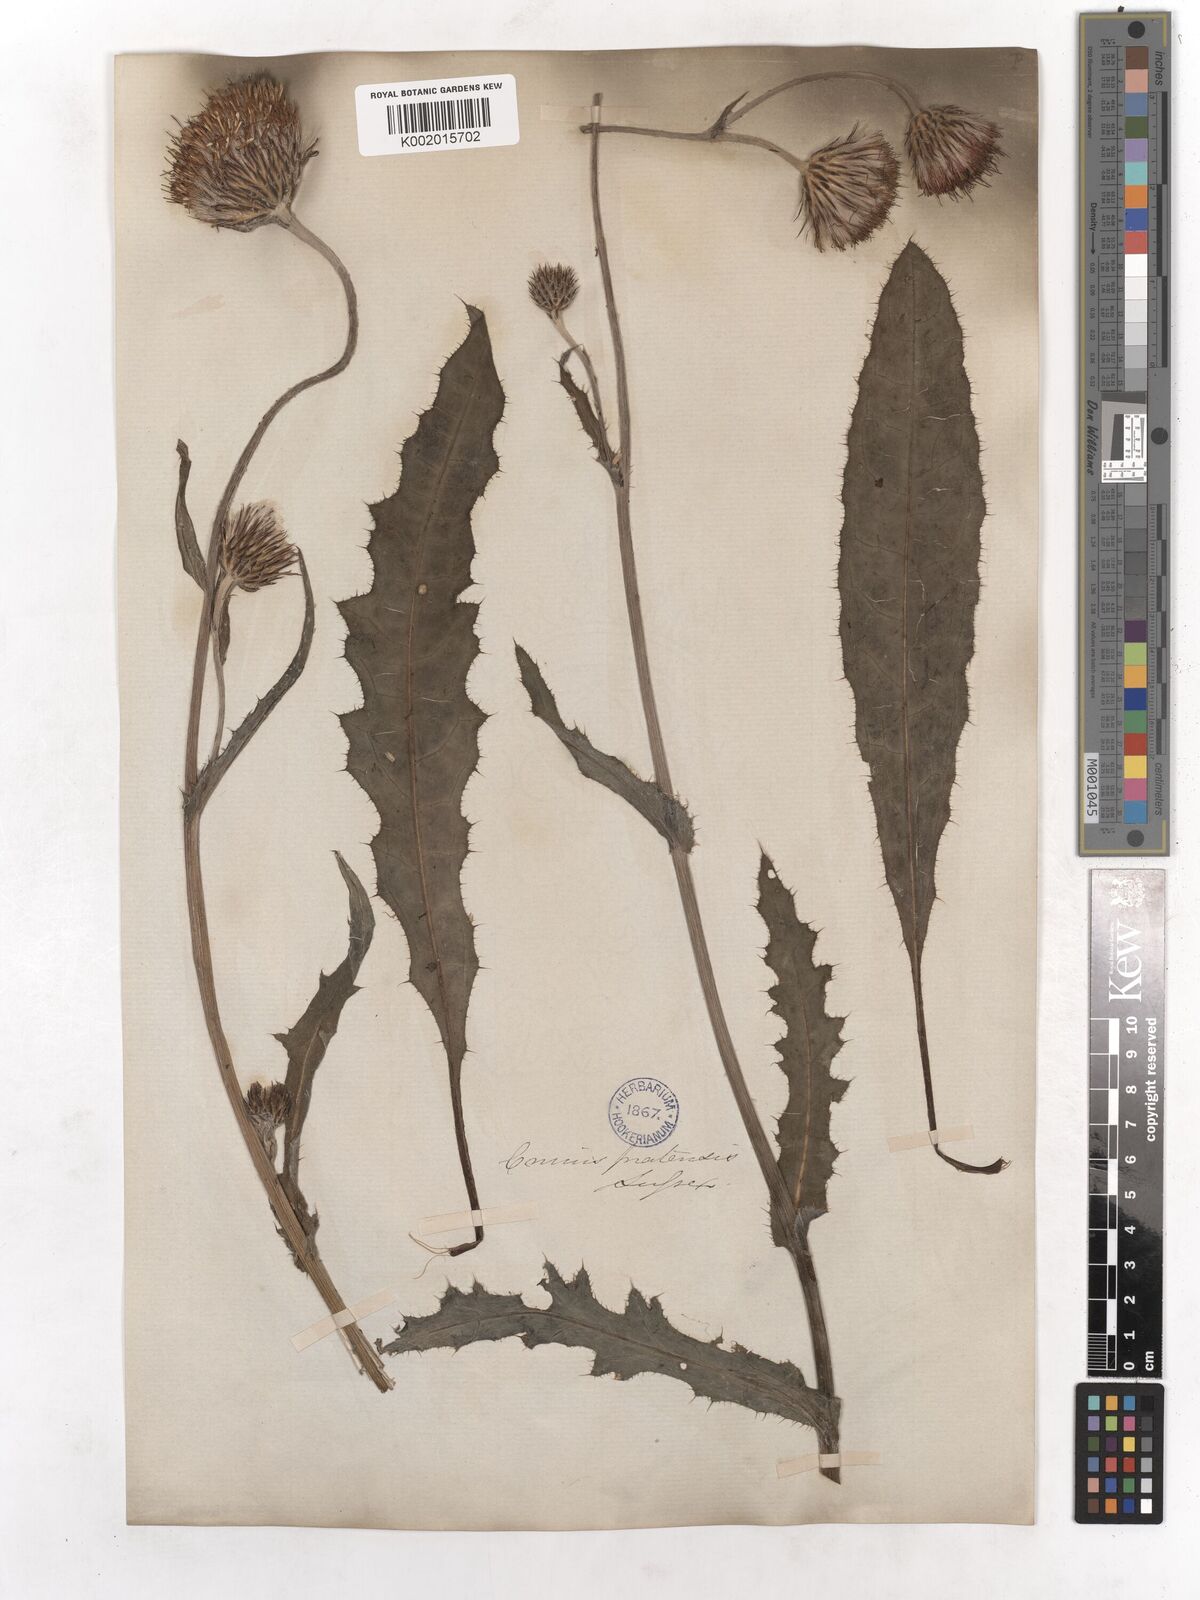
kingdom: Plantae
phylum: Tracheophyta
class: Magnoliopsida
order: Asterales
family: Asteraceae
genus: Cirsium
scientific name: Cirsium dissectum
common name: Meadow thistle
